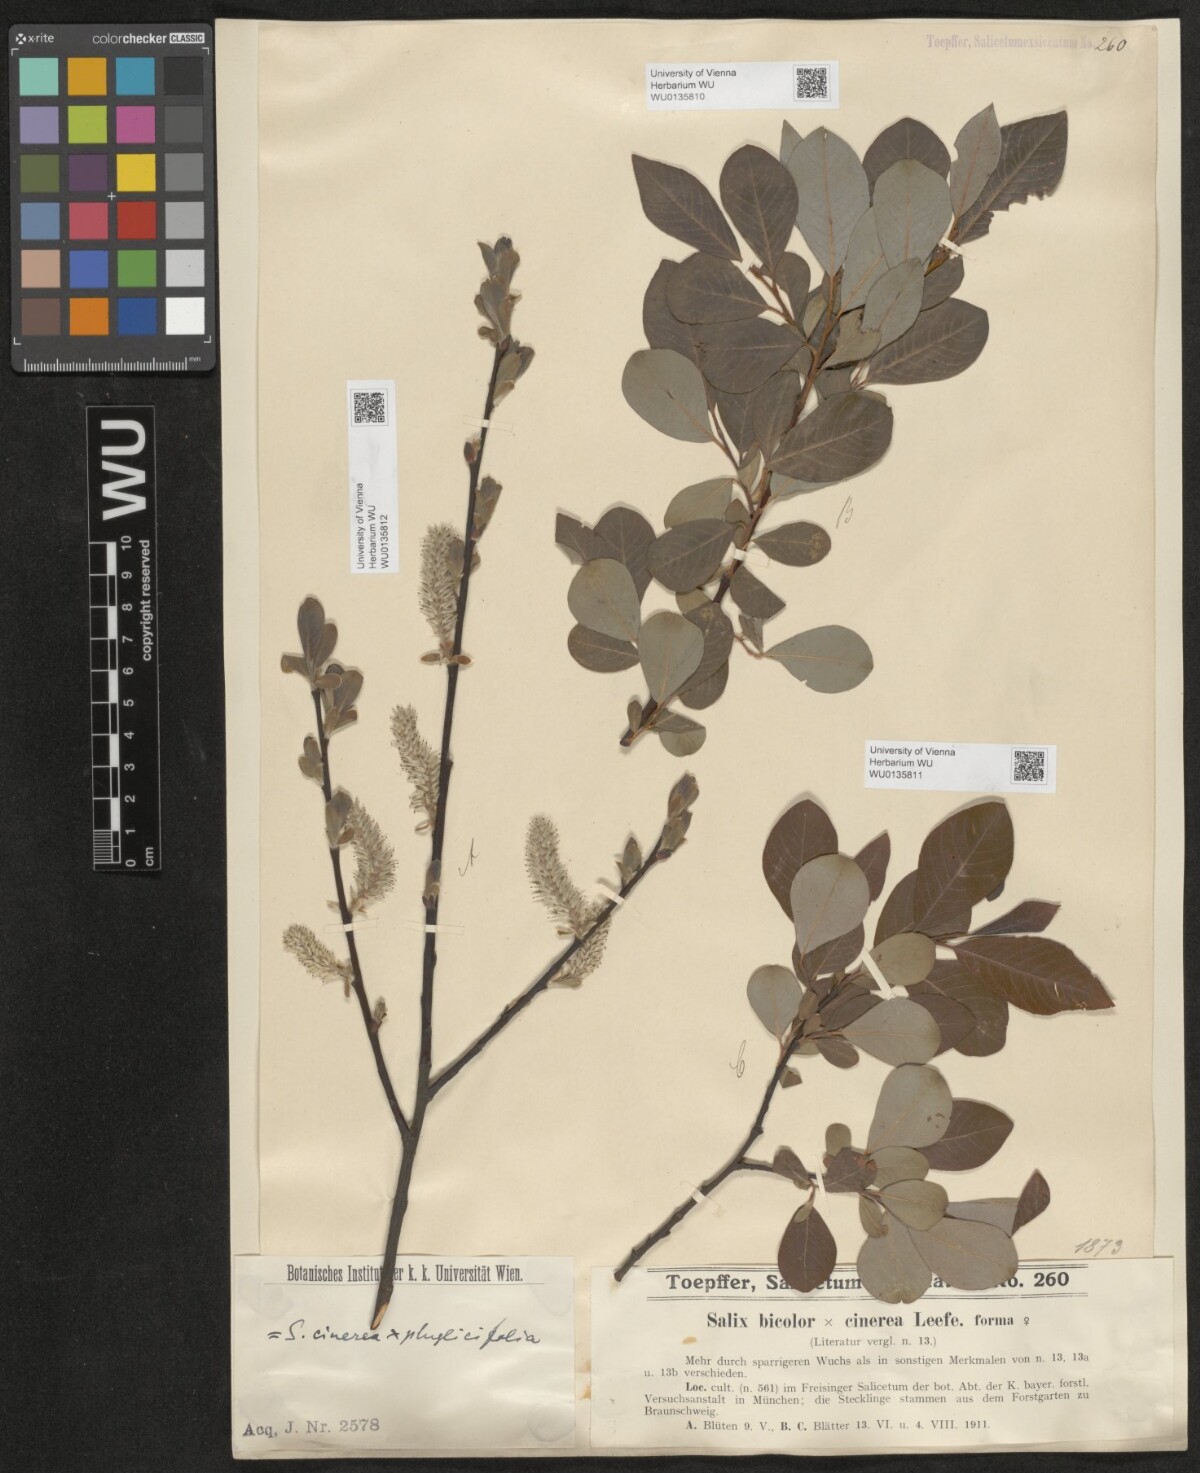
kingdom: Plantae
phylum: Tracheophyta
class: Magnoliopsida
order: Malpighiales
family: Salicaceae
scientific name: Salicaceae
